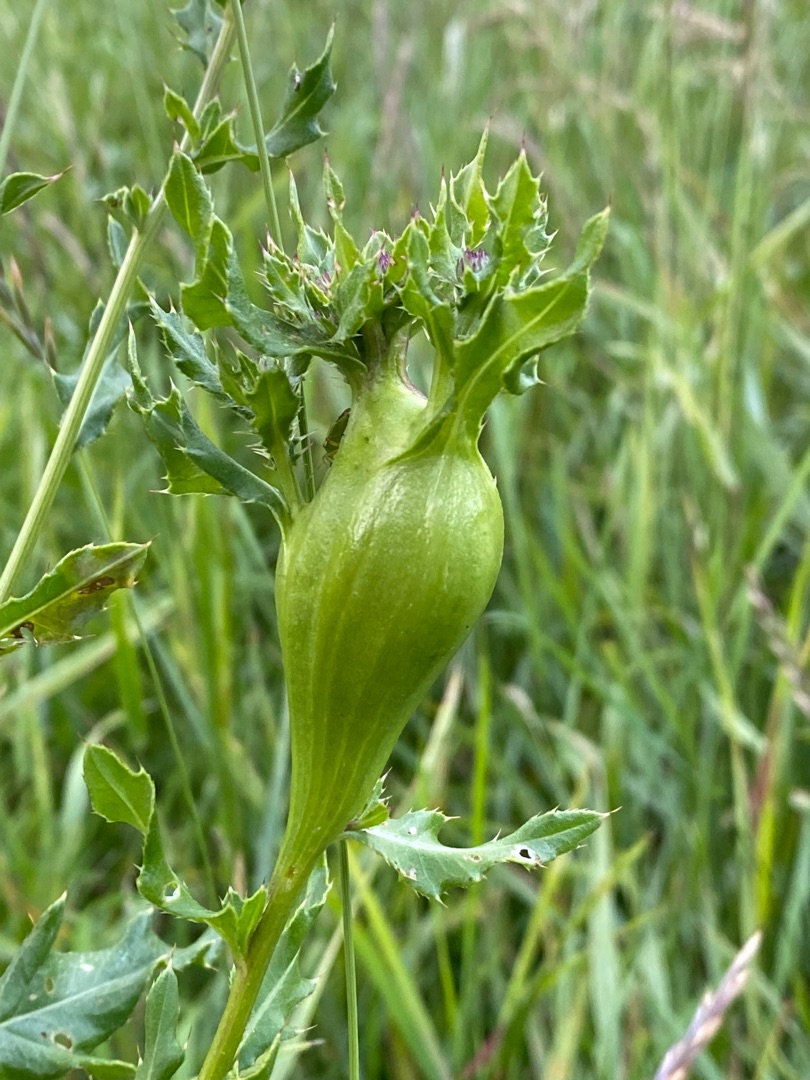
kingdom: Animalia
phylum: Arthropoda
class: Insecta
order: Diptera
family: Tephritidae
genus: Urophora
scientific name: Urophora cardui
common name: Tidselbåndflue
